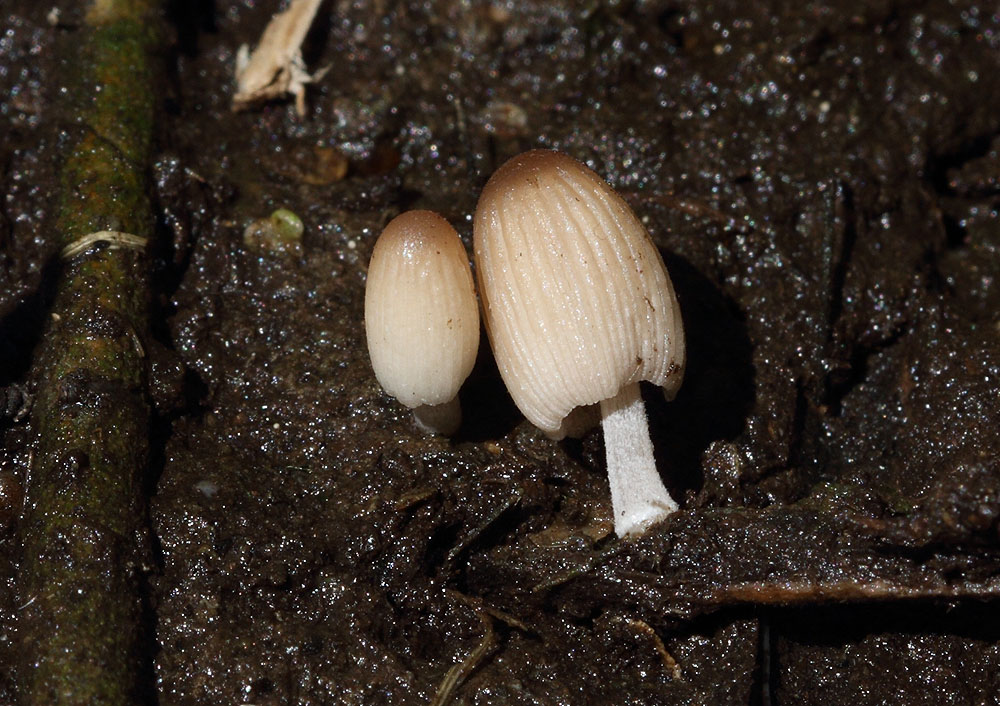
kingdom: Fungi
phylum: Basidiomycota
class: Agaricomycetes
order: Agaricales
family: Psathyrellaceae
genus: Tulosesus
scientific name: Tulosesus subdisseminatus
